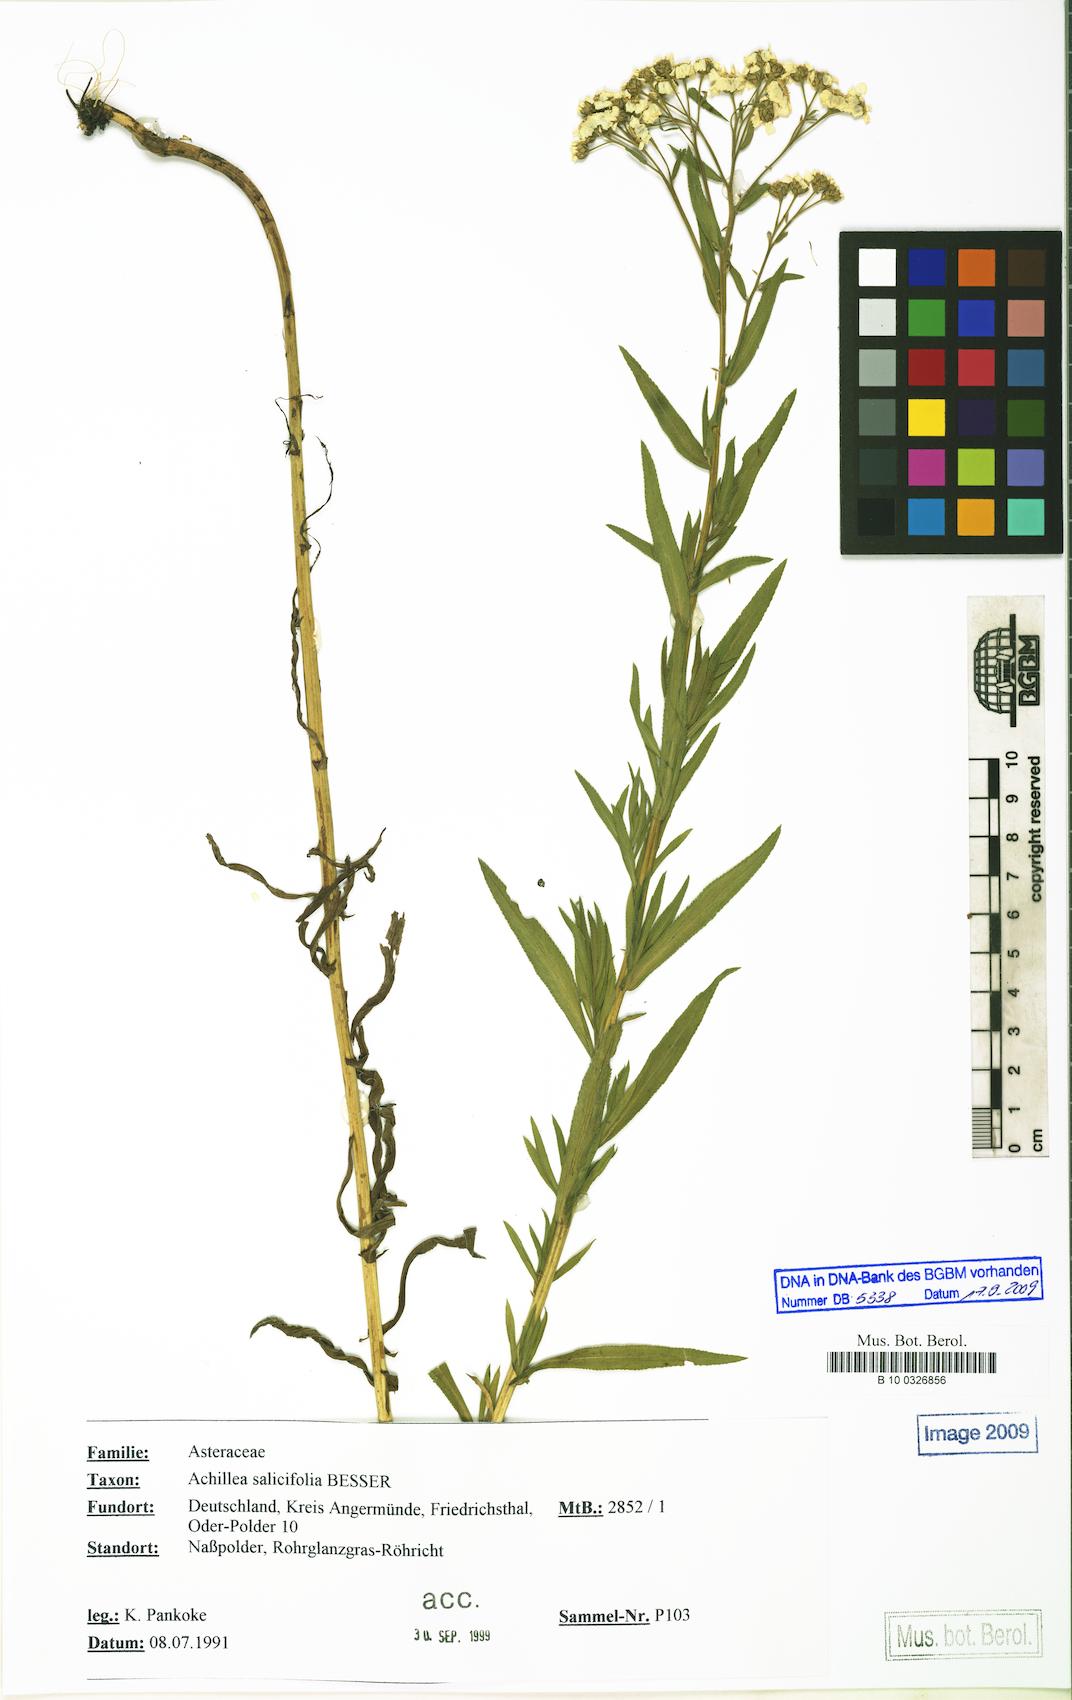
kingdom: Plantae
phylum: Tracheophyta
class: Magnoliopsida
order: Asterales
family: Asteraceae
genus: Achillea
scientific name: Achillea salicifolia
